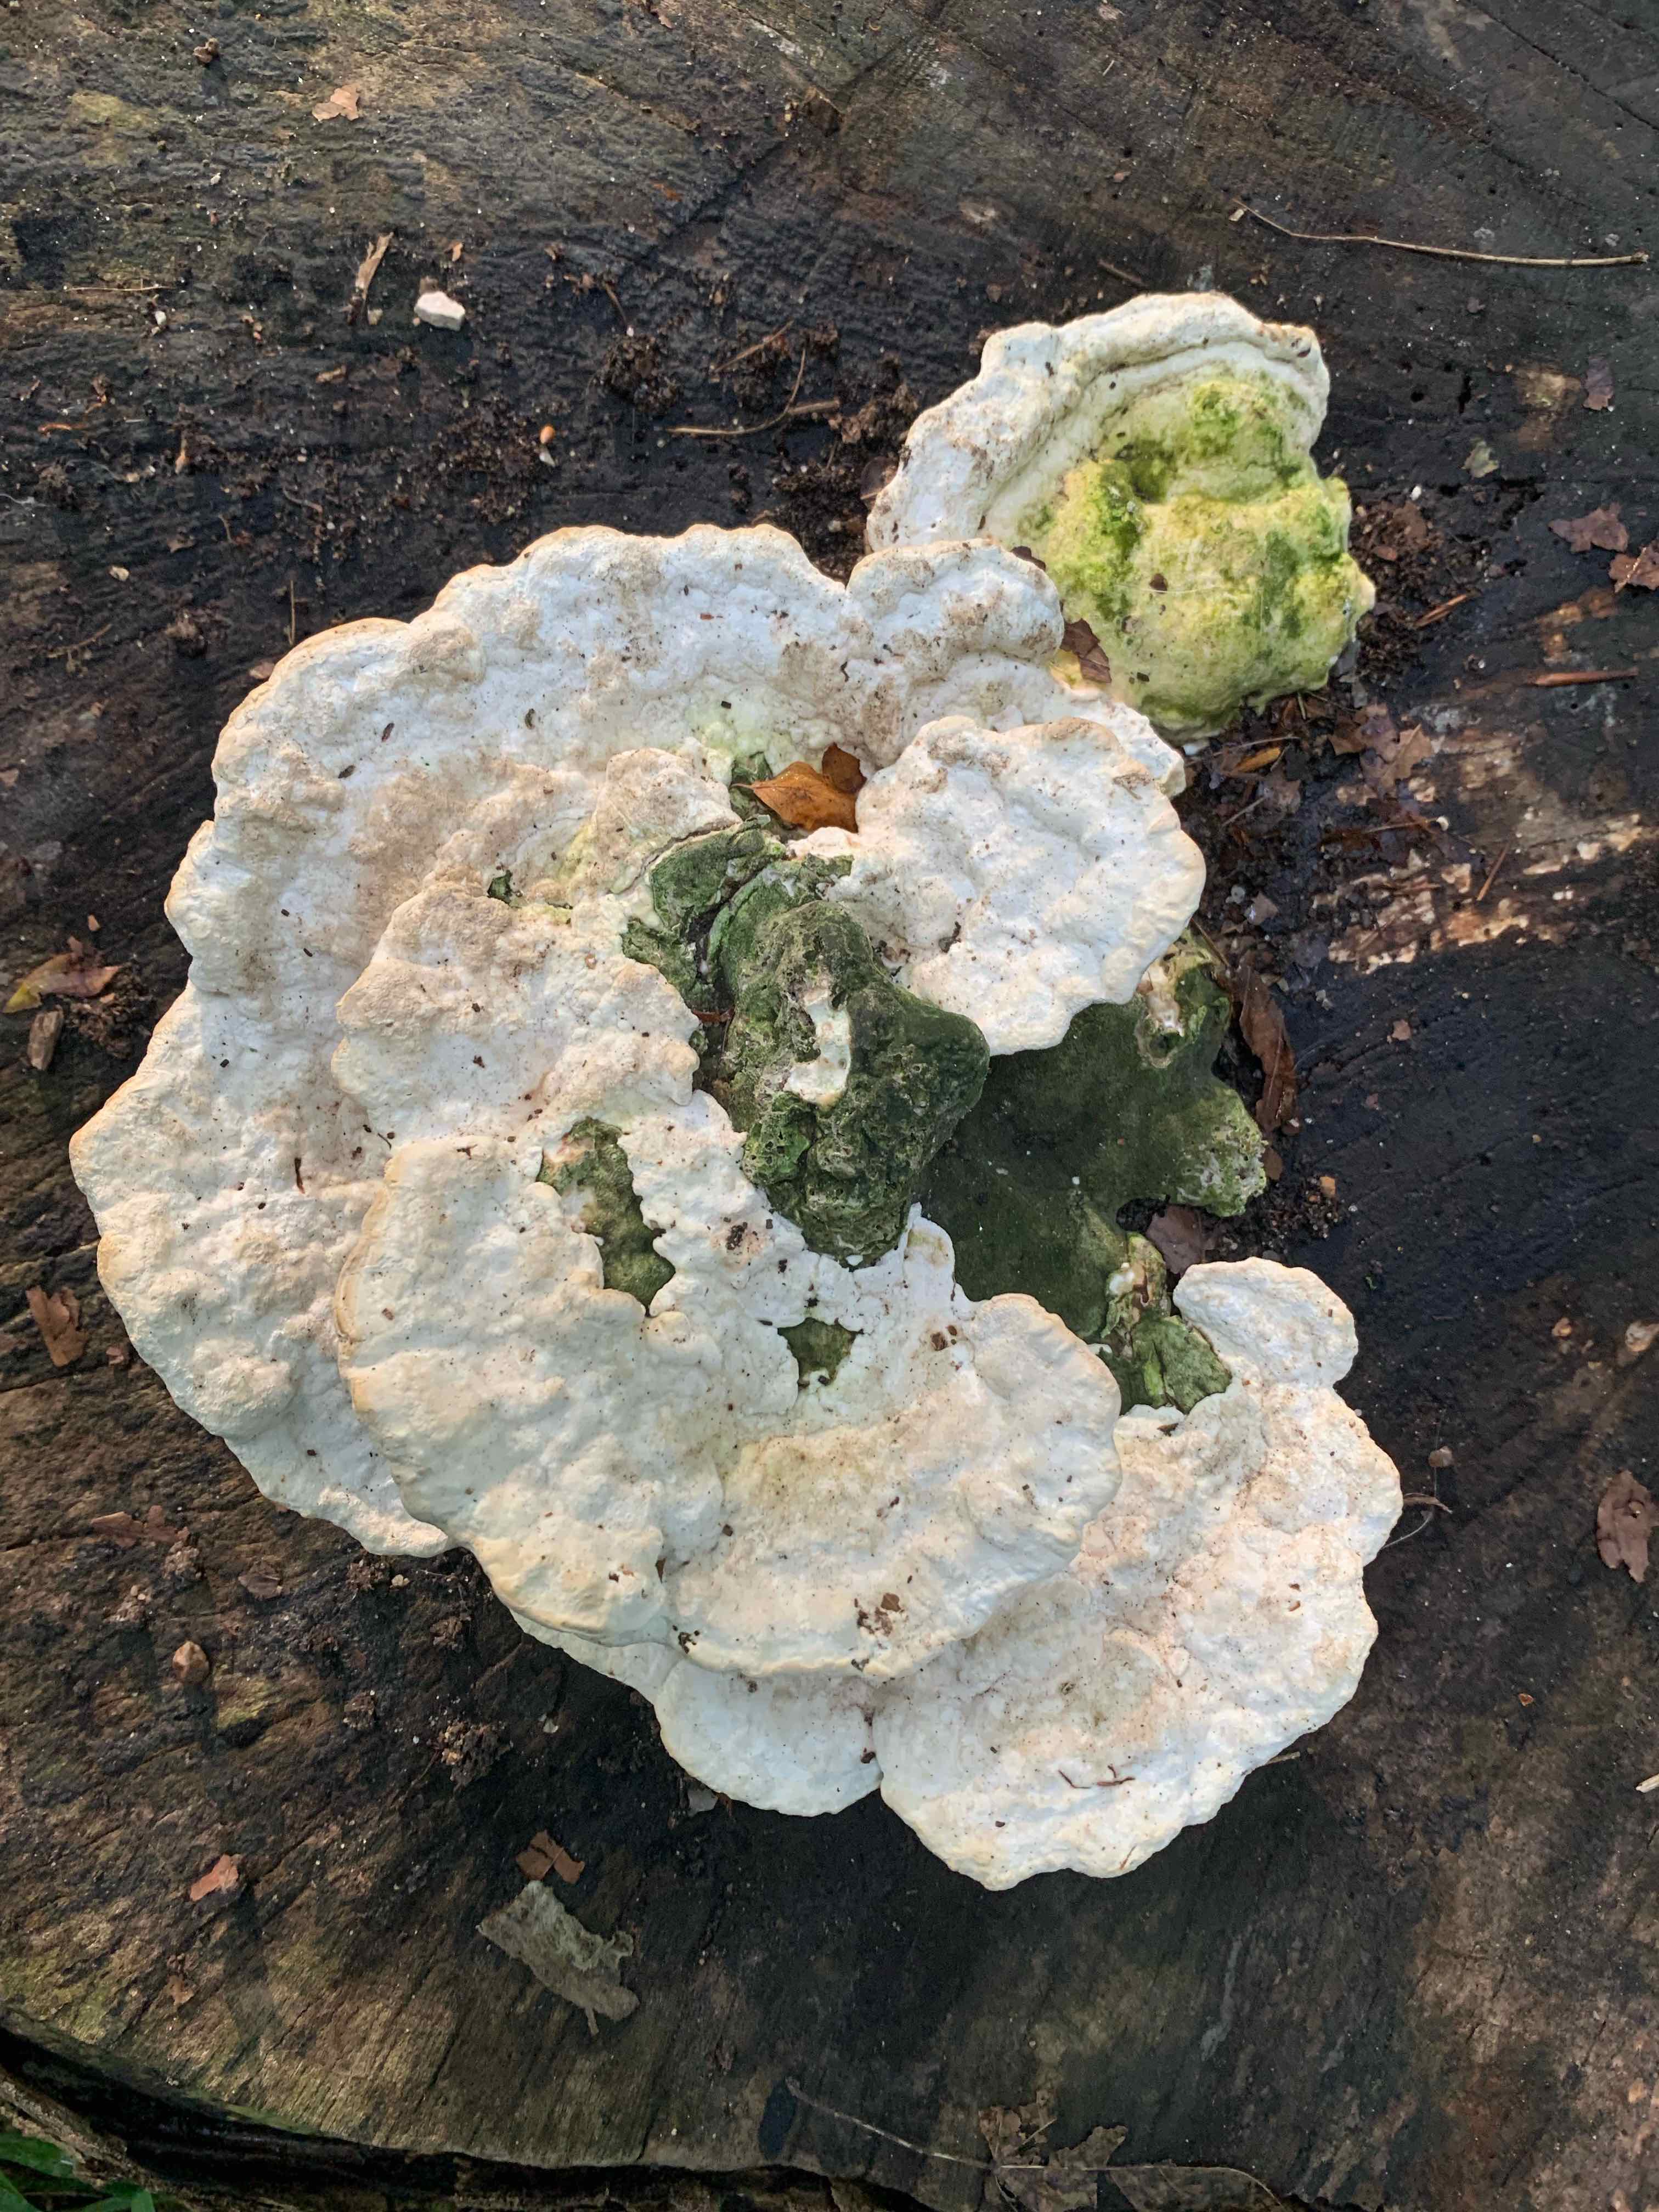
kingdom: Fungi
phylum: Basidiomycota
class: Agaricomycetes
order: Polyporales
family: Polyporaceae
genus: Trametes
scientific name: Trametes gibbosa
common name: puklet læderporesvamp
